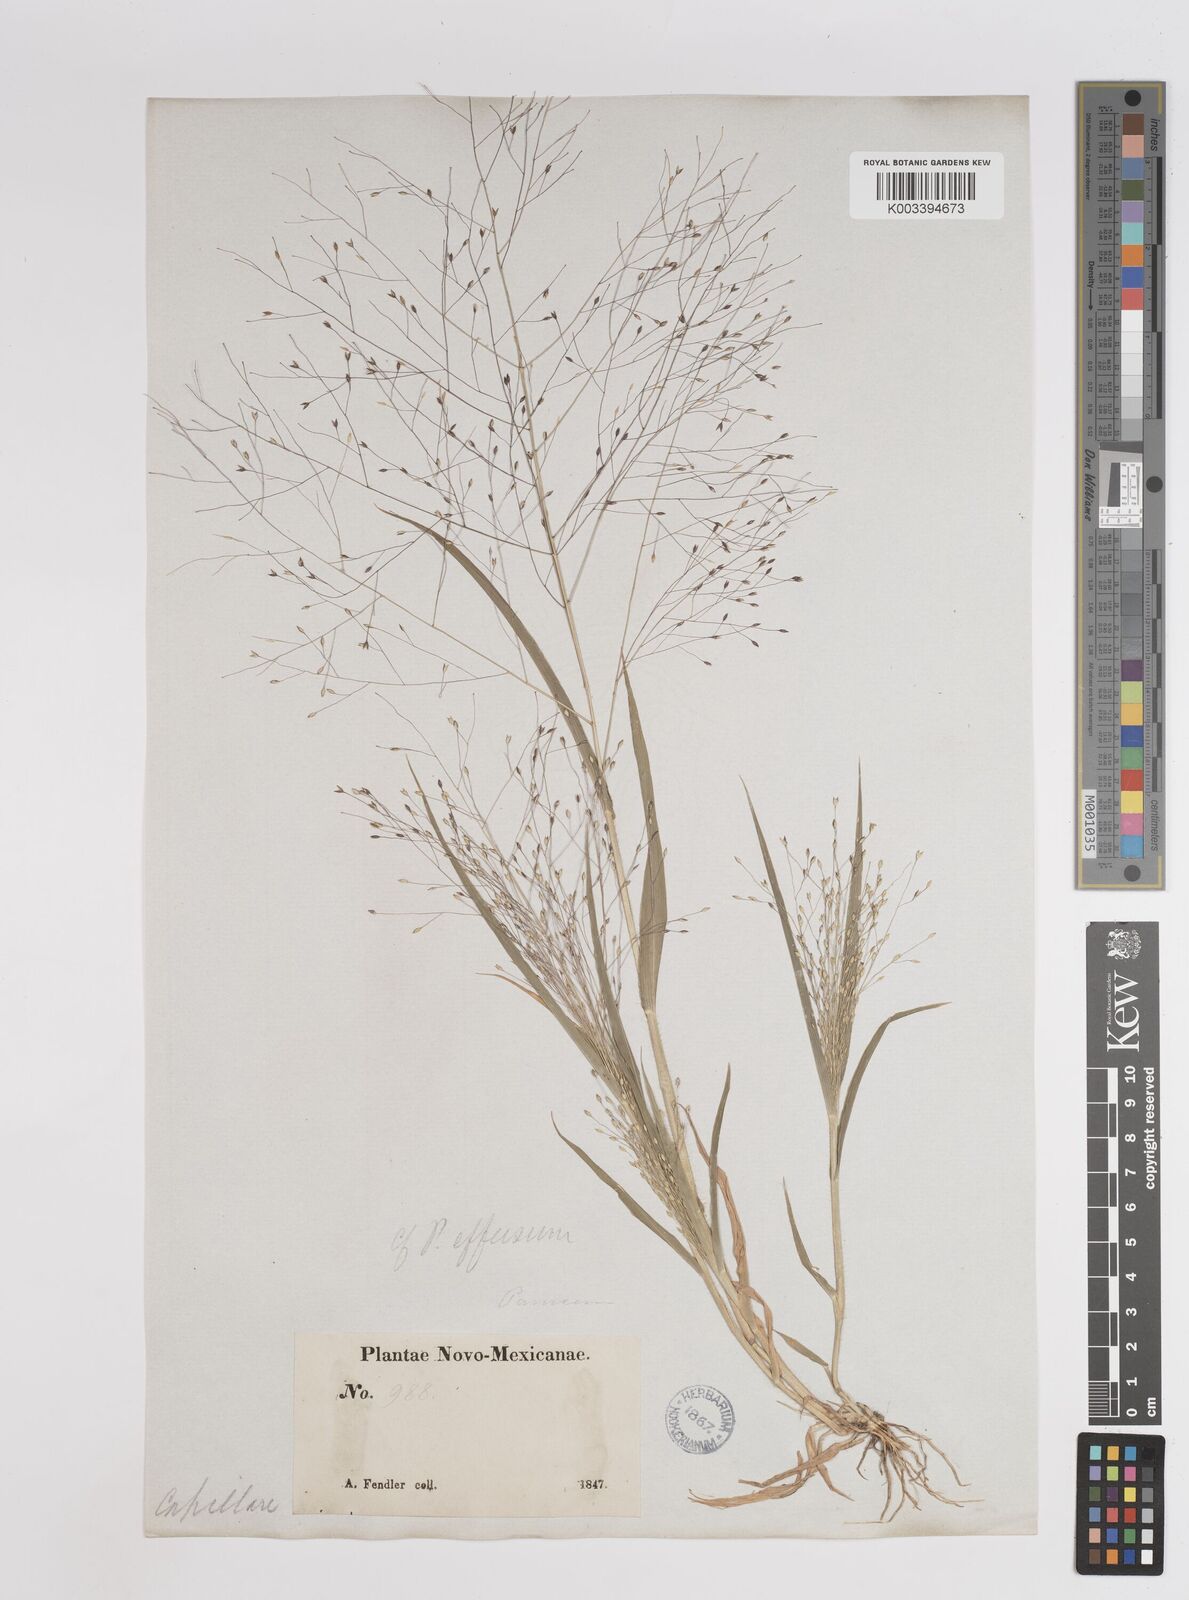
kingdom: Plantae
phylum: Tracheophyta
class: Liliopsida
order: Poales
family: Poaceae
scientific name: Poaceae
